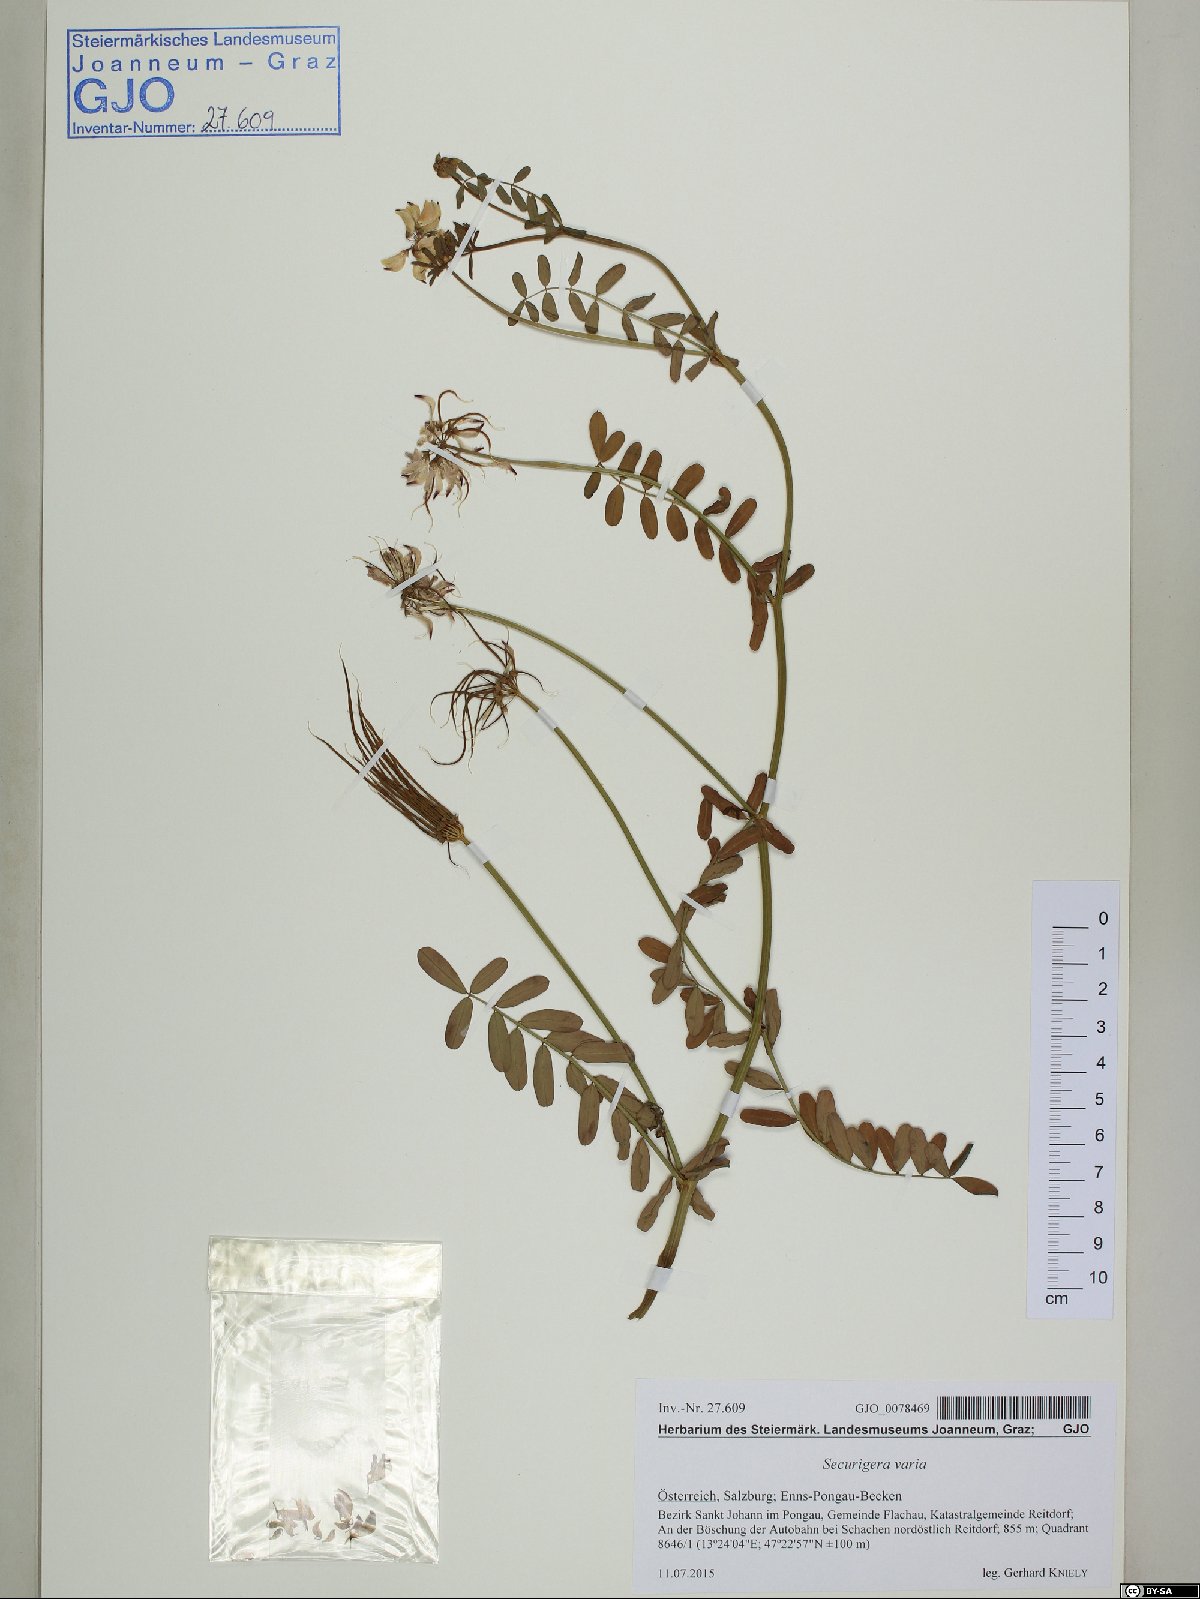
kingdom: Plantae
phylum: Tracheophyta
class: Magnoliopsida
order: Fabales
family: Fabaceae
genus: Coronilla
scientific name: Coronilla varia
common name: Crownvetch
